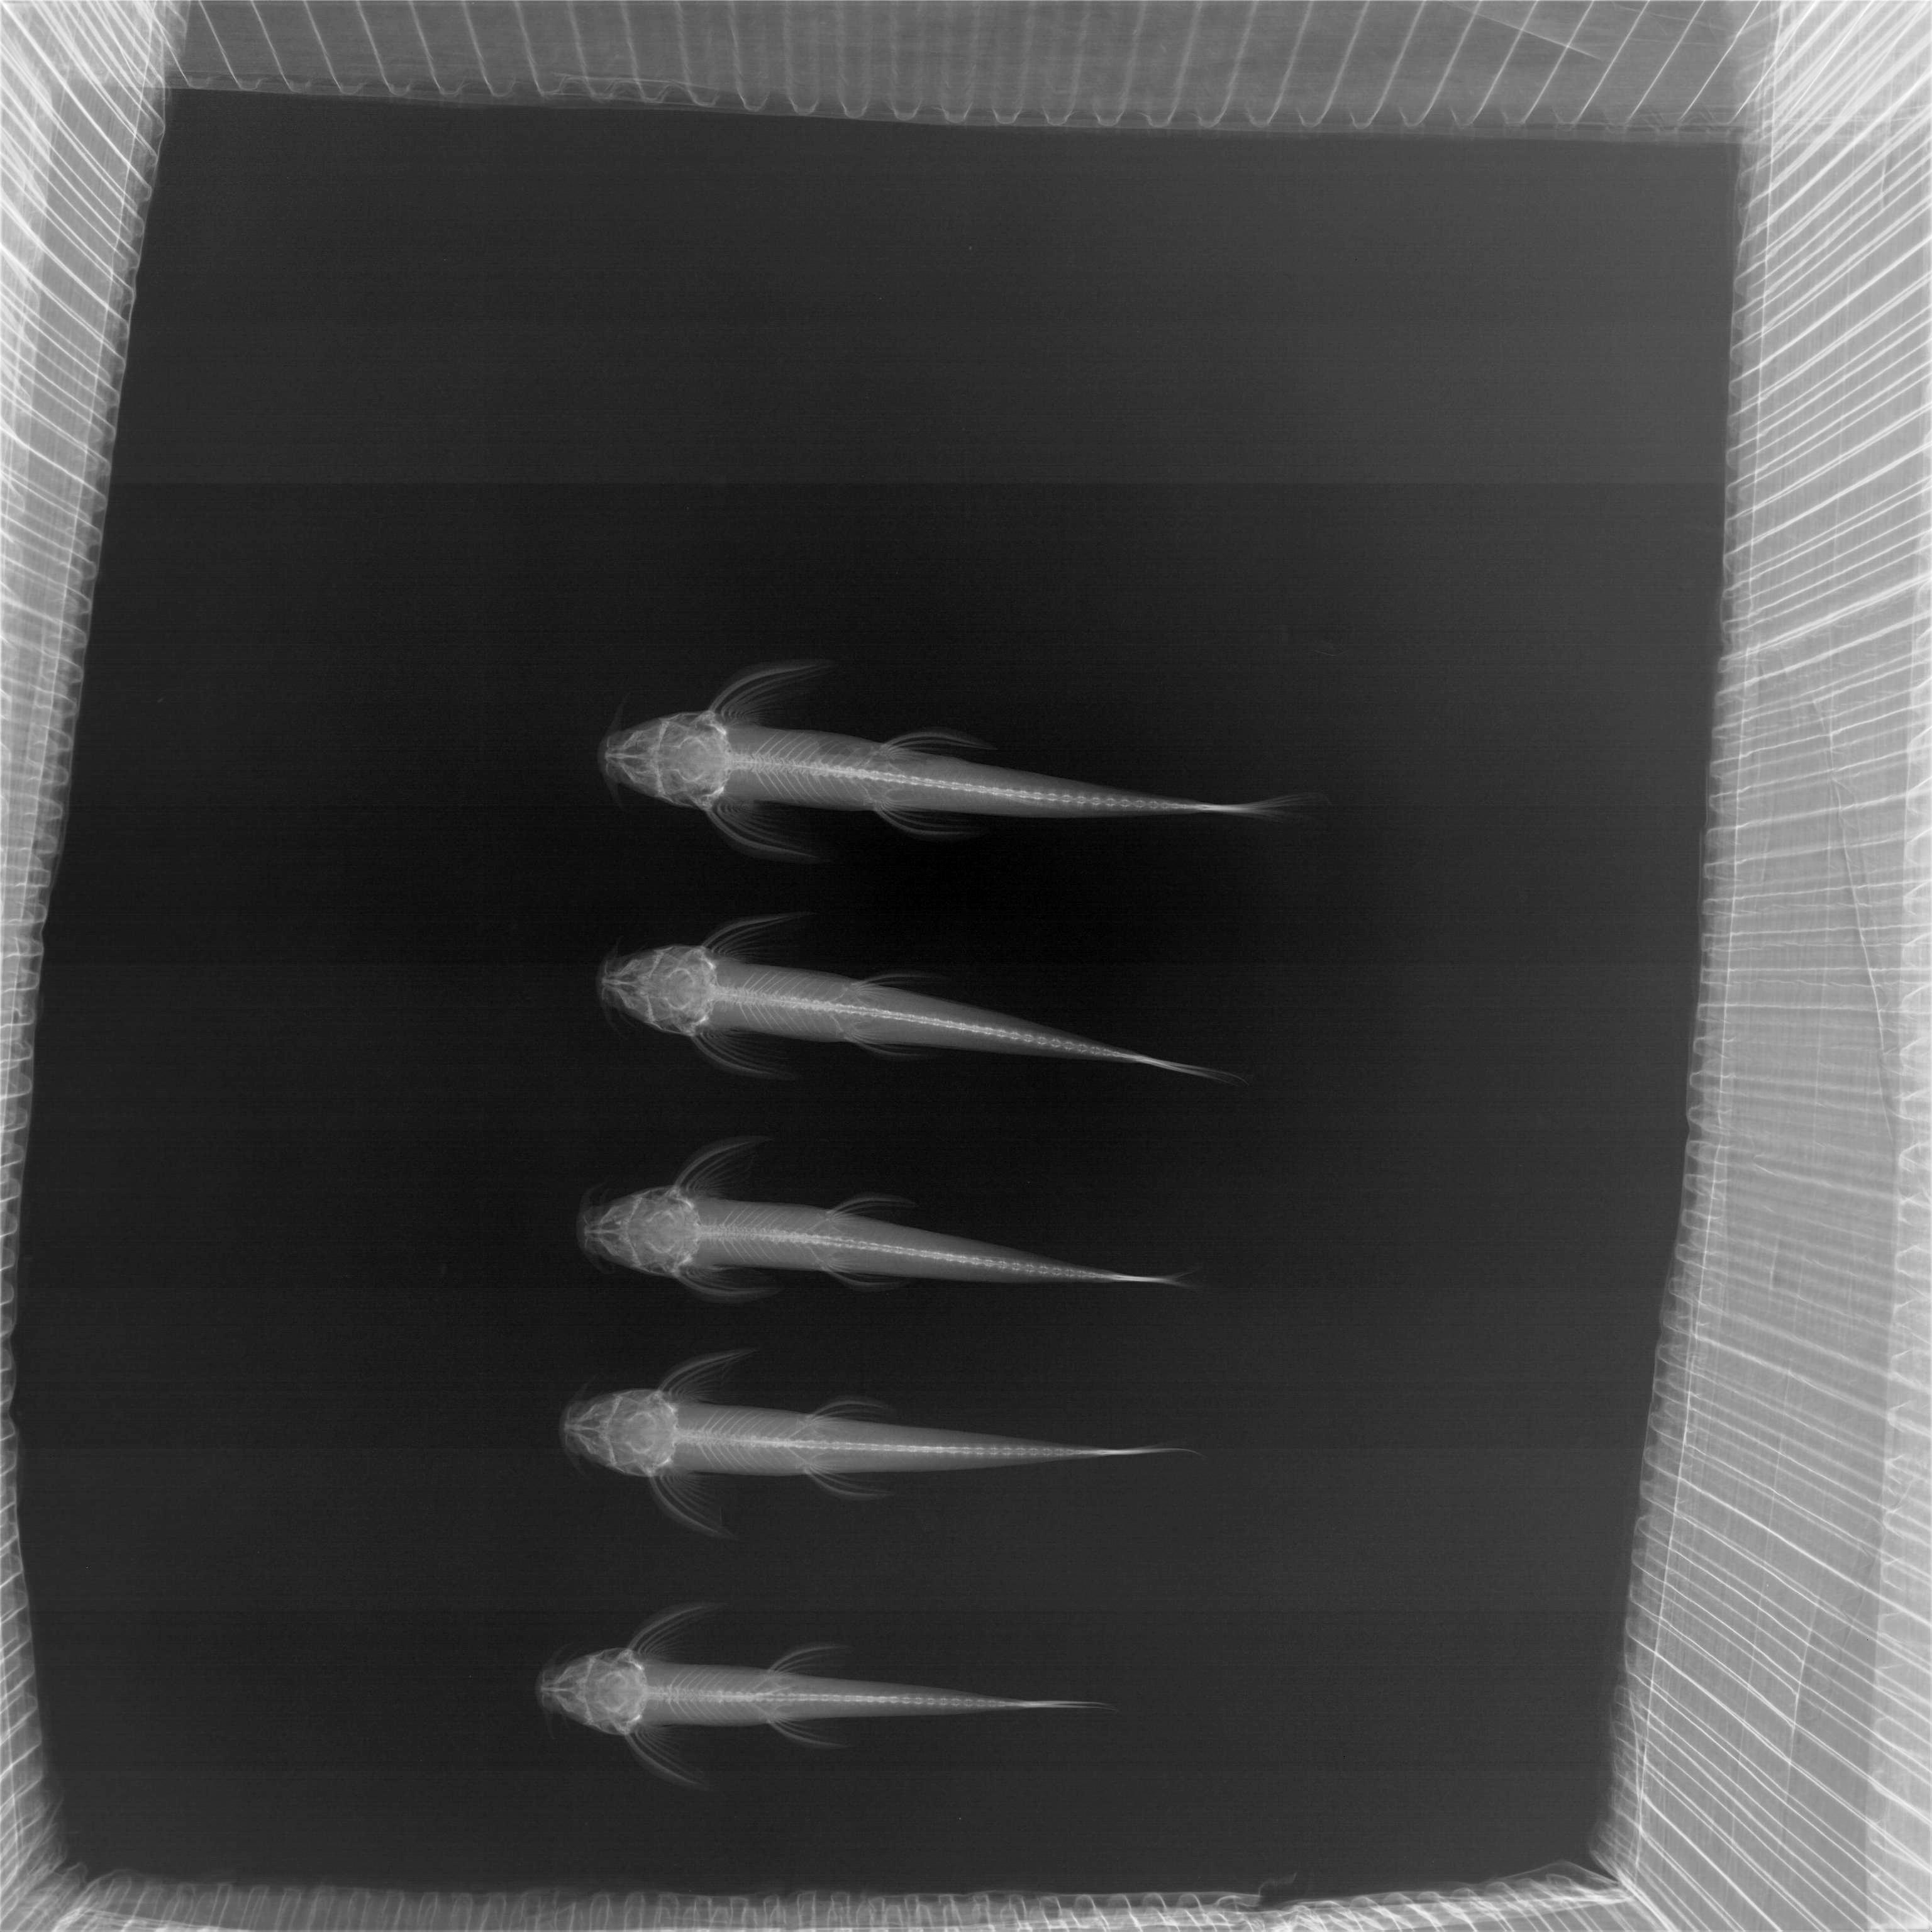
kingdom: Animalia
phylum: Chordata
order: Siluriformes
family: Amphiliidae
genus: Doumea
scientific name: Doumea
